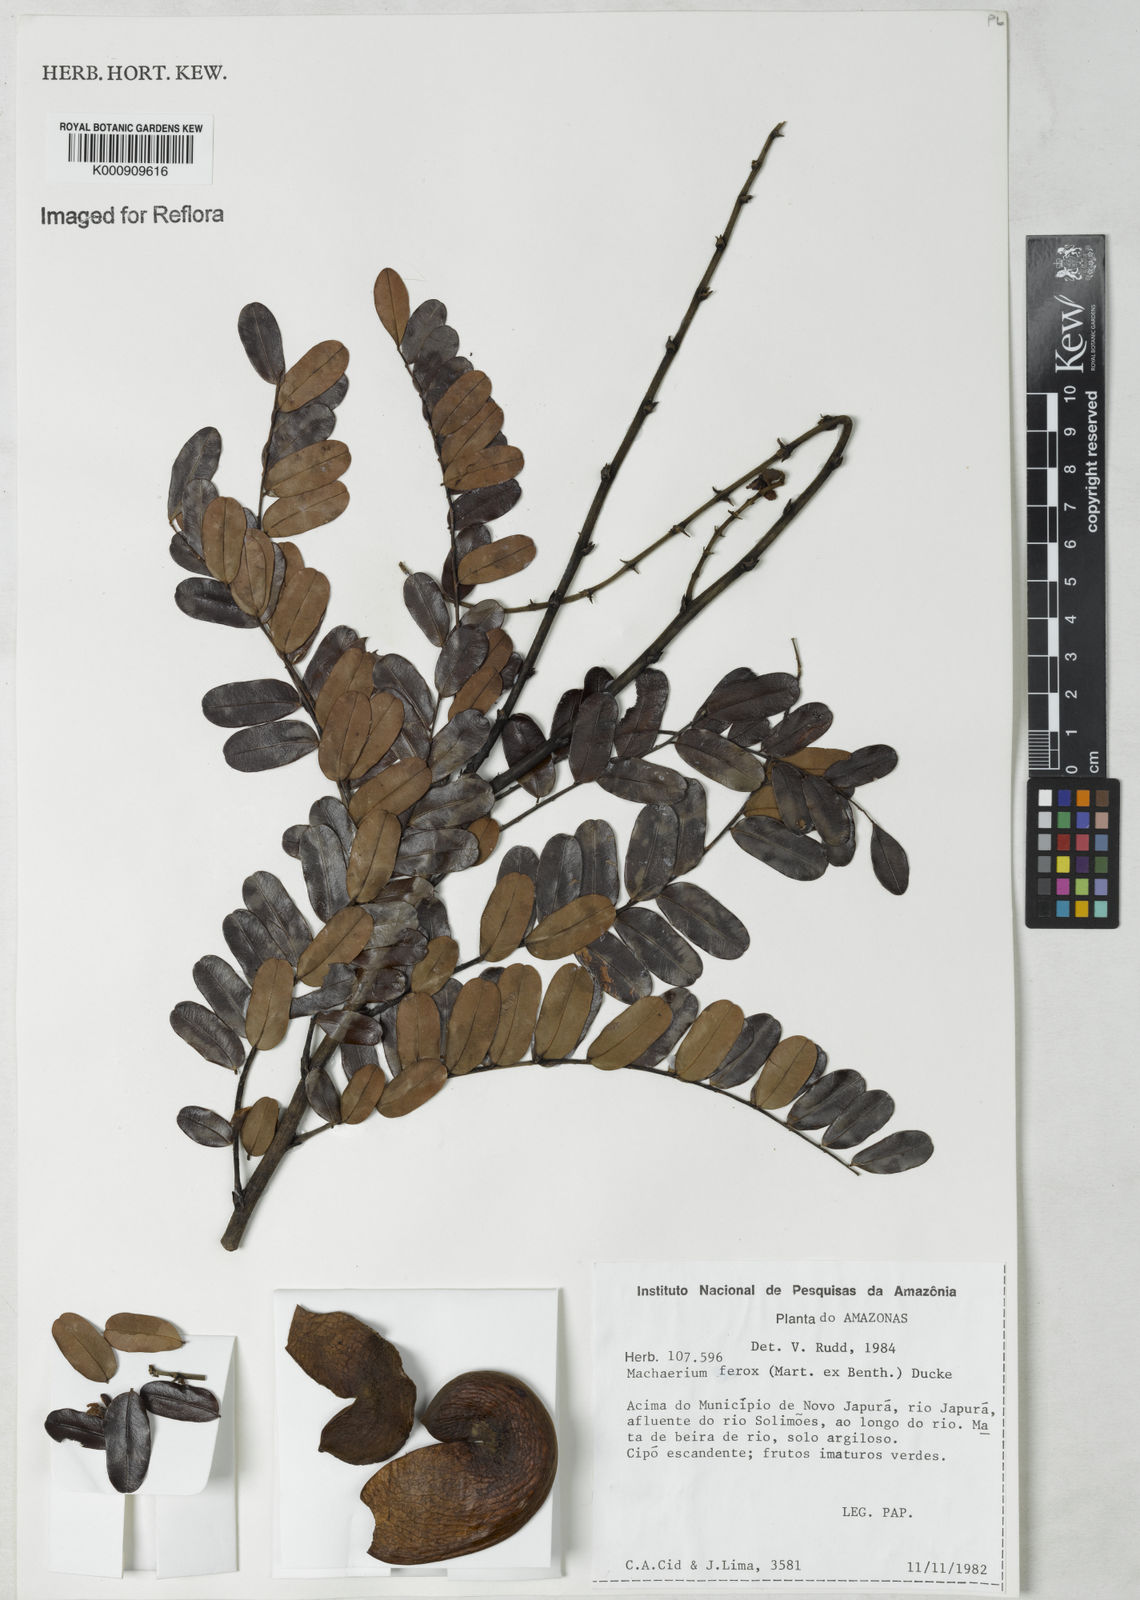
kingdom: Plantae
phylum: Tracheophyta
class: Magnoliopsida
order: Fabales
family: Fabaceae
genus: Machaerium
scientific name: Machaerium ferox
